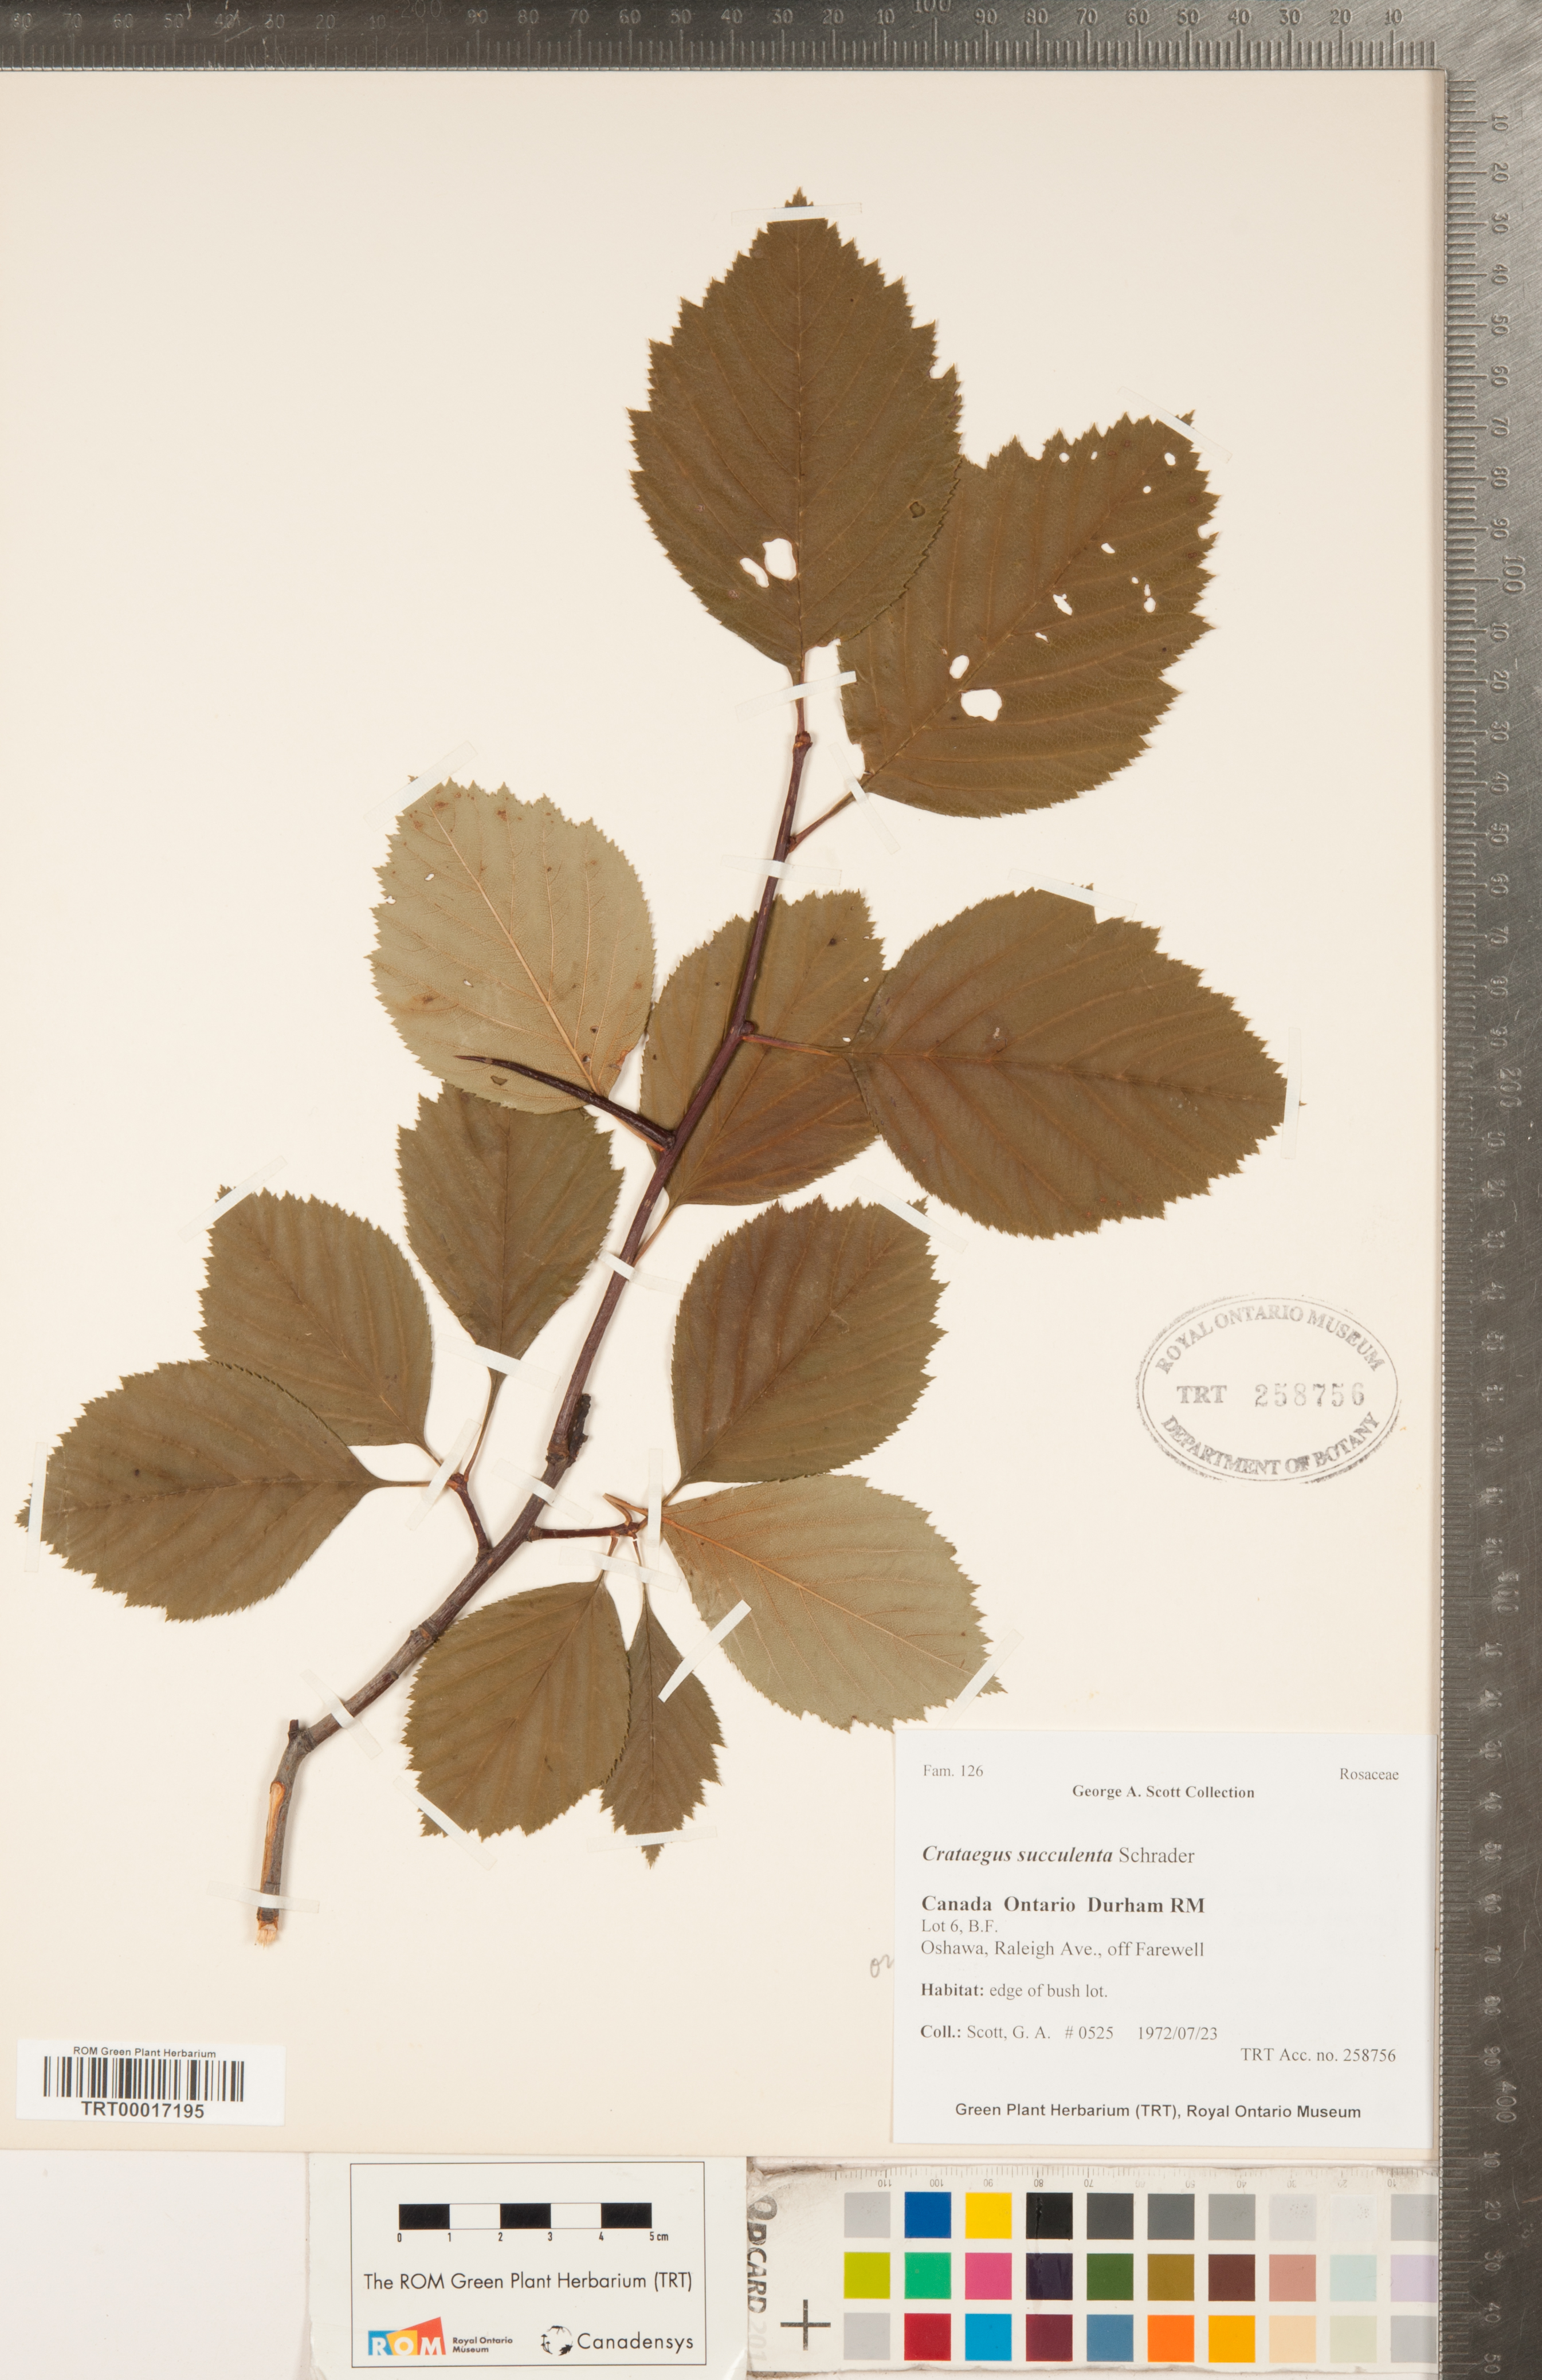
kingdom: Plantae
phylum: Tracheophyta
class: Magnoliopsida
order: Rosales
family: Rosaceae
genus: Crataegus
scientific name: Crataegus succulenta
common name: Fleshy hawthorn
